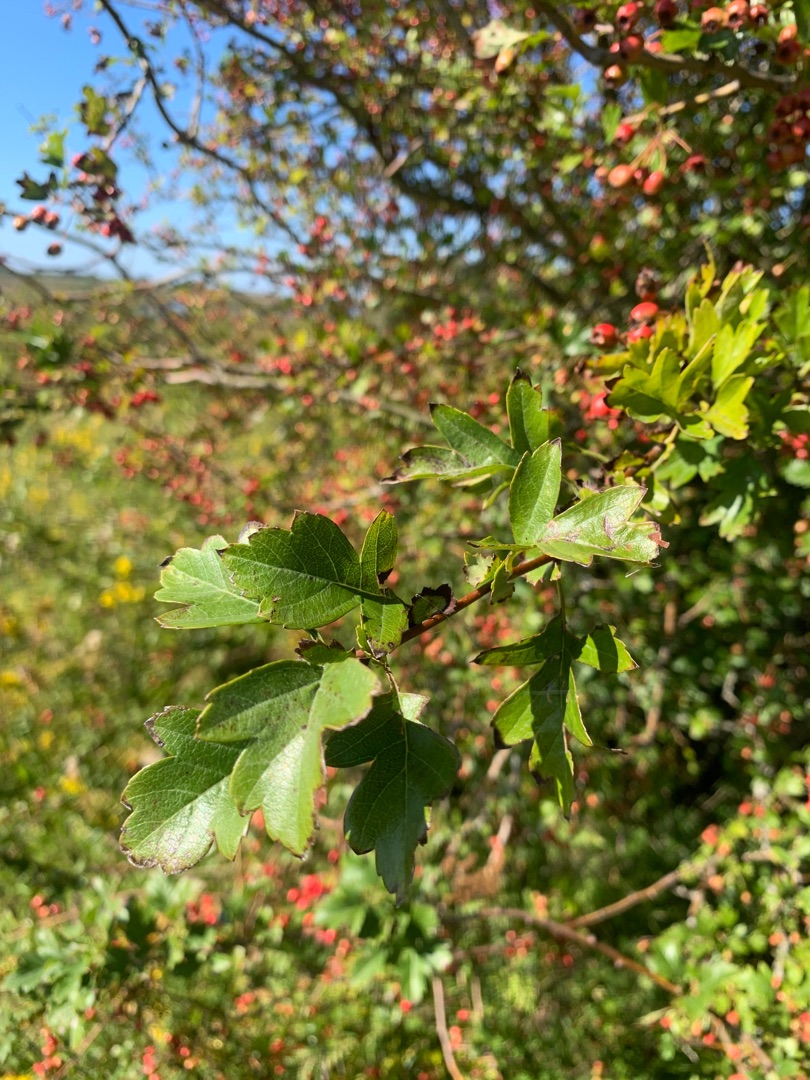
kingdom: Plantae
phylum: Tracheophyta
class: Magnoliopsida
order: Rosales
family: Rosaceae
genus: Crataegus
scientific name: Crataegus monogyna
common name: Engriflet hvidtjørn
